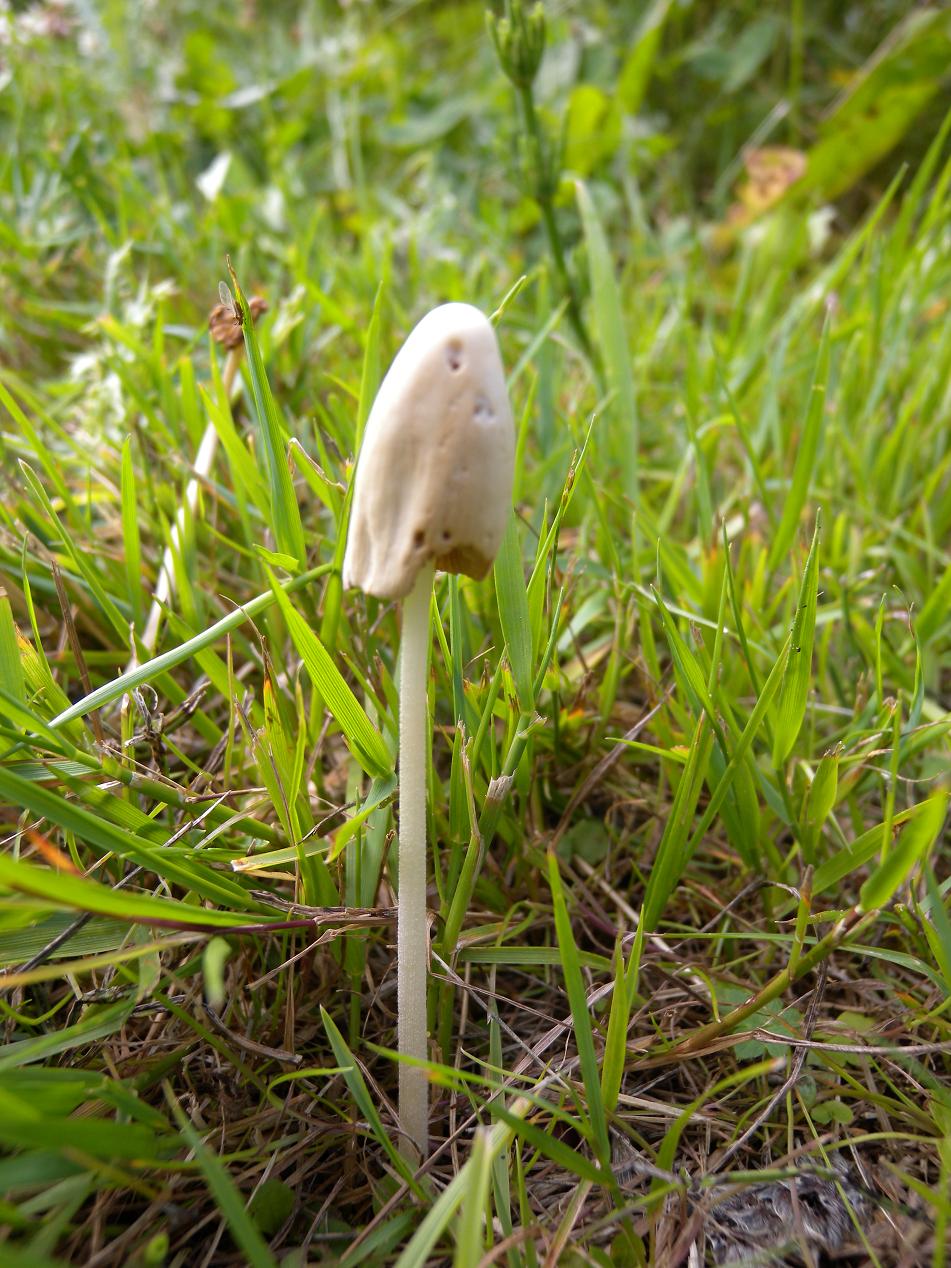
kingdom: Fungi
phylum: Basidiomycota
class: Agaricomycetes
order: Agaricales
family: Bolbitiaceae
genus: Conocybe
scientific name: Conocybe apala
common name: mælkehvid keglehat
